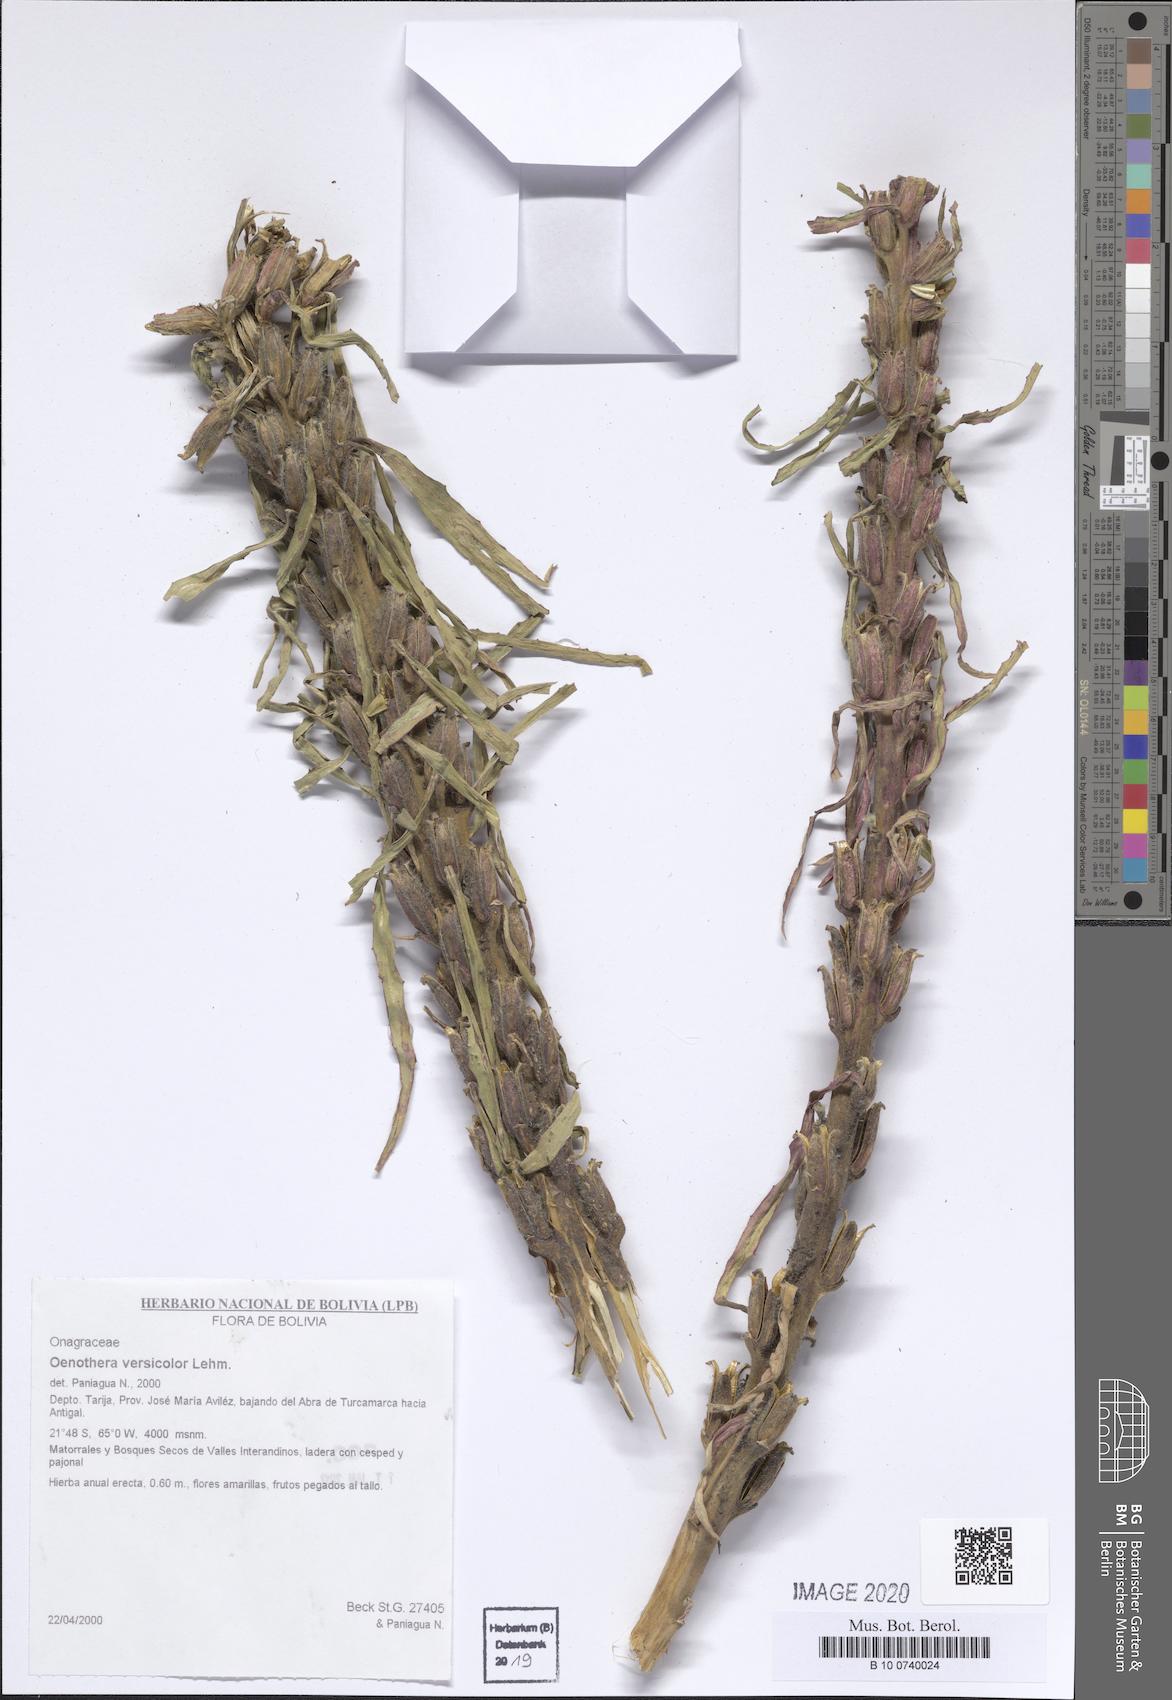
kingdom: Plantae
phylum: Tracheophyta
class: Magnoliopsida
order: Myrtales
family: Onagraceae
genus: Oenothera
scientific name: Oenothera versicolor
